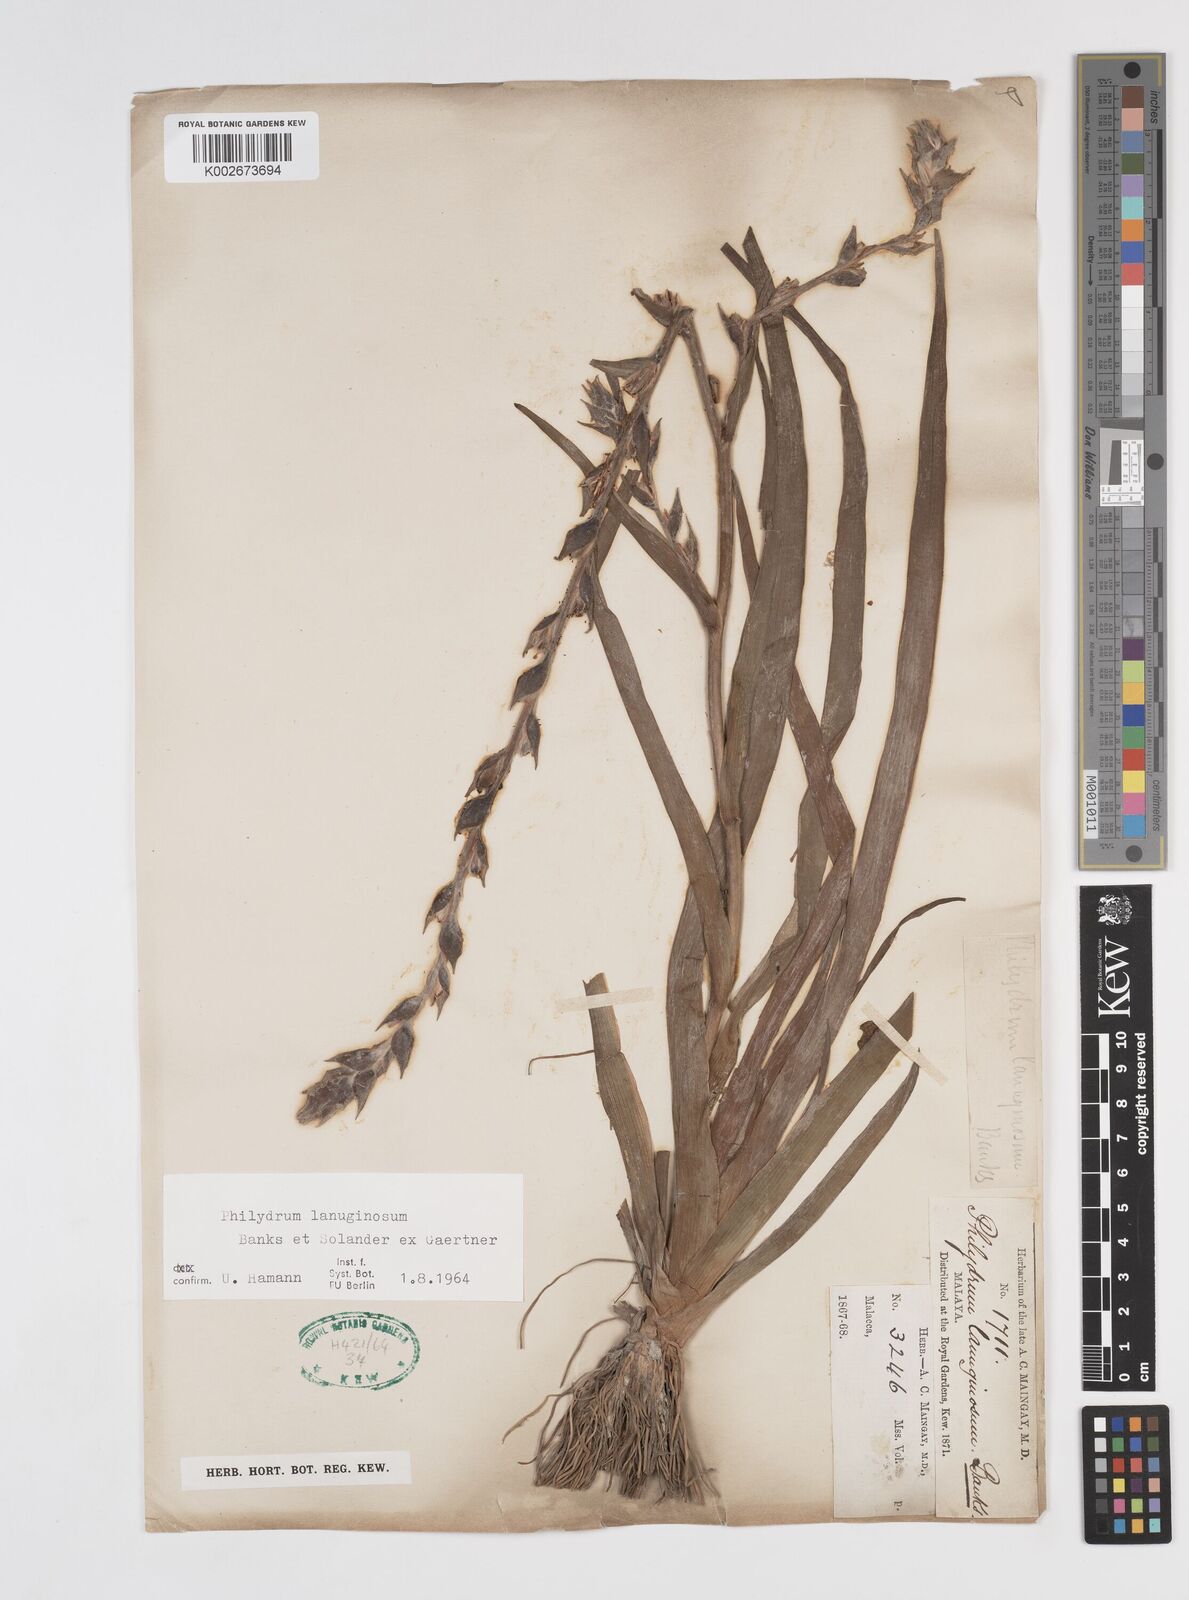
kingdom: Plantae
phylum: Tracheophyta
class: Liliopsida
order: Commelinales
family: Philydraceae
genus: Philydrum
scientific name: Philydrum lanuginosum
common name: Woolly frog's mouth
